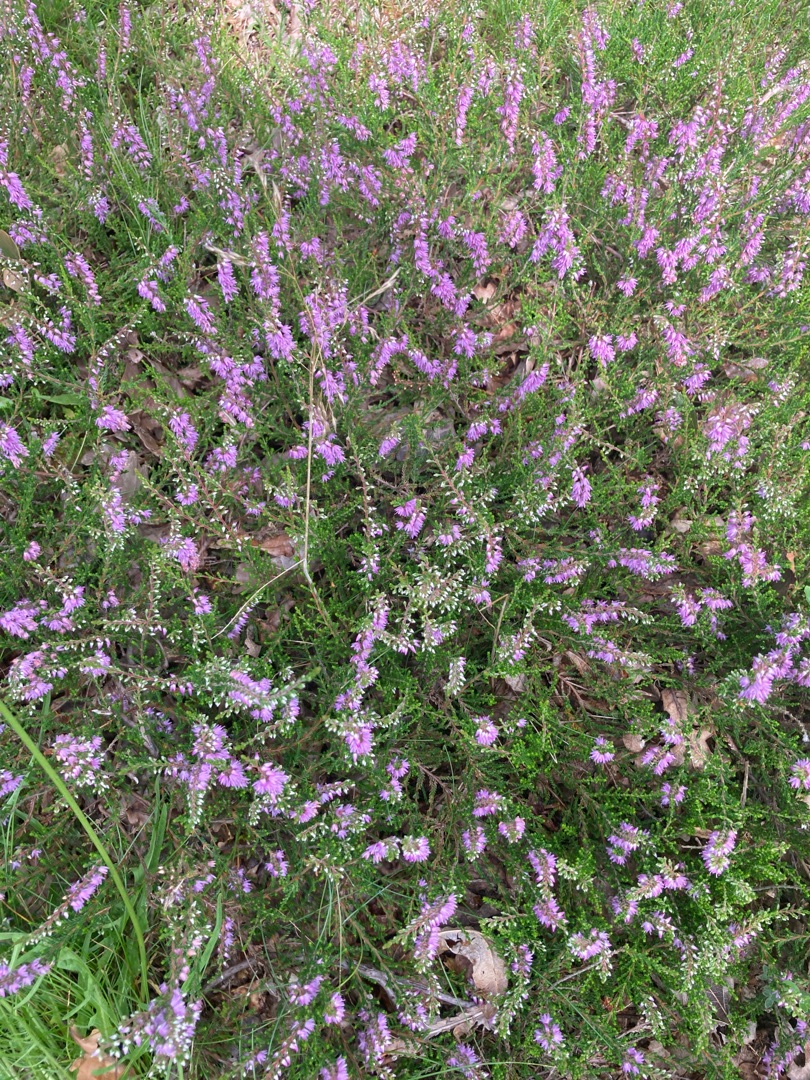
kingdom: Plantae
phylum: Tracheophyta
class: Magnoliopsida
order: Ericales
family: Ericaceae
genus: Calluna
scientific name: Calluna vulgaris
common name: Hedelyng
